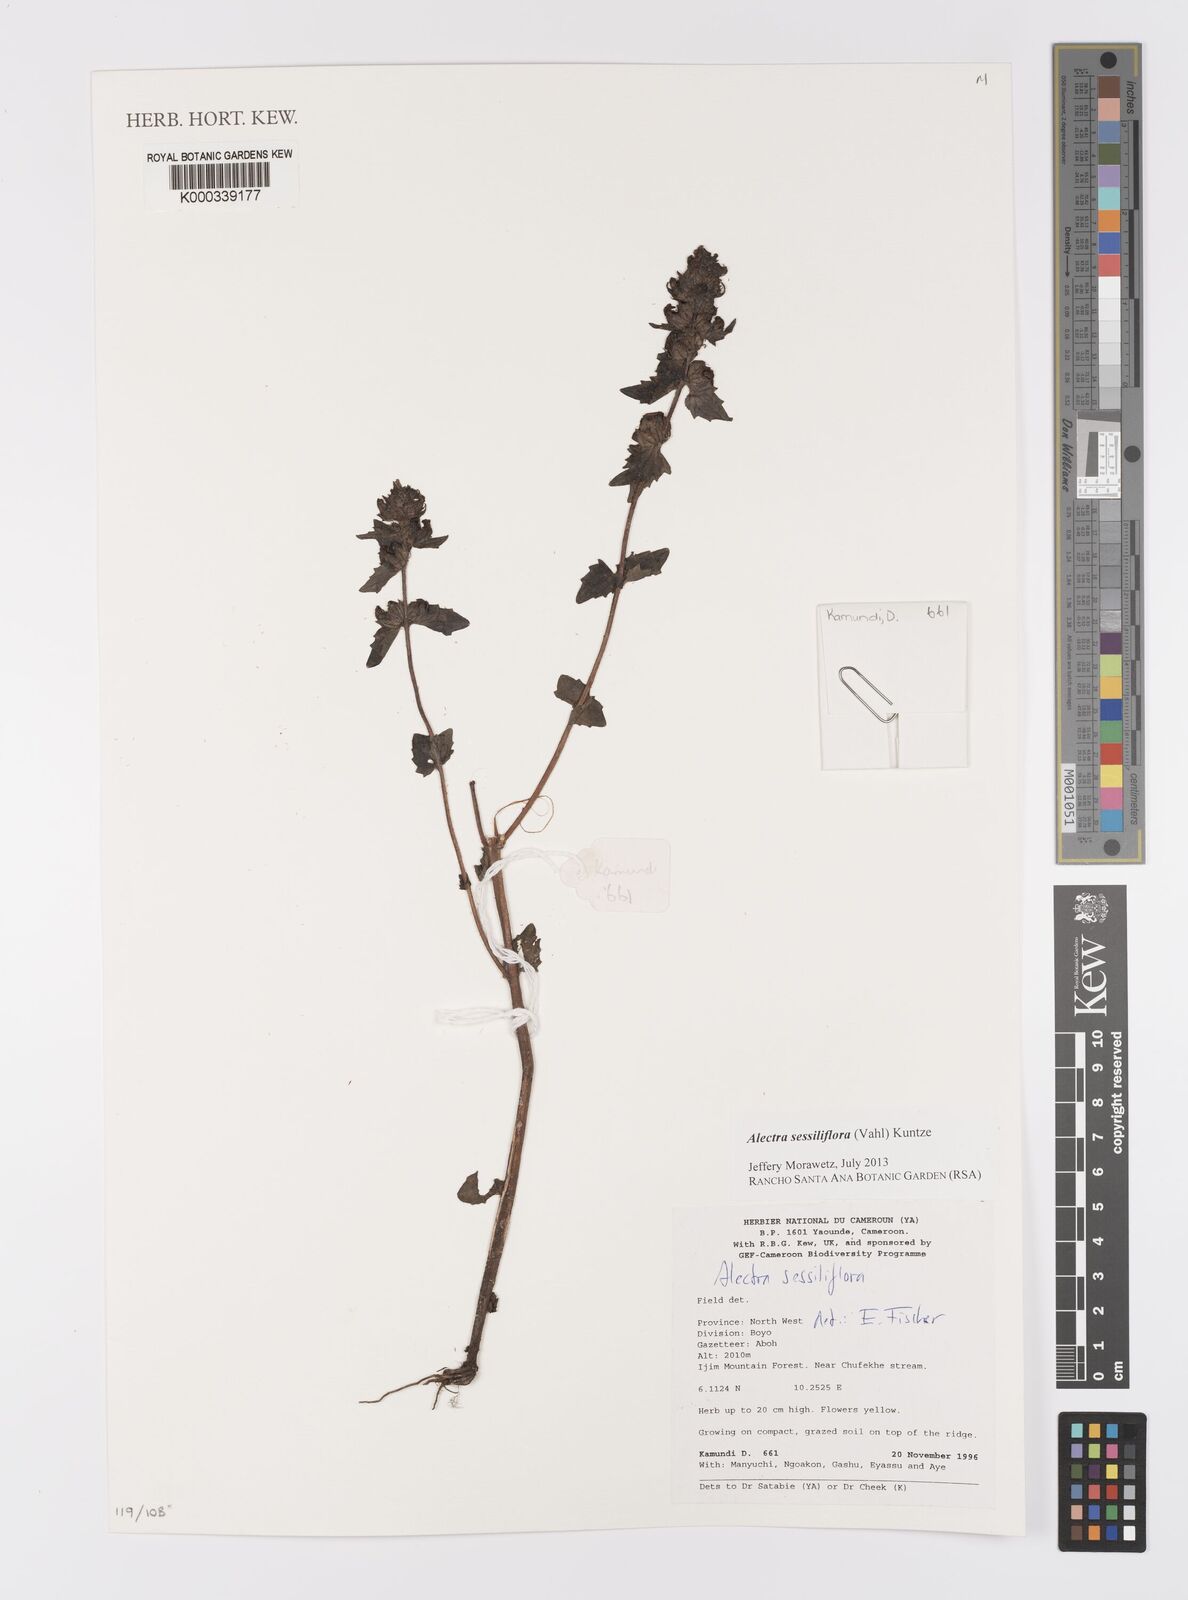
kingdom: Plantae
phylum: Tracheophyta
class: Magnoliopsida
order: Lamiales
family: Orobanchaceae
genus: Alectra
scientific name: Alectra sessiliflora
